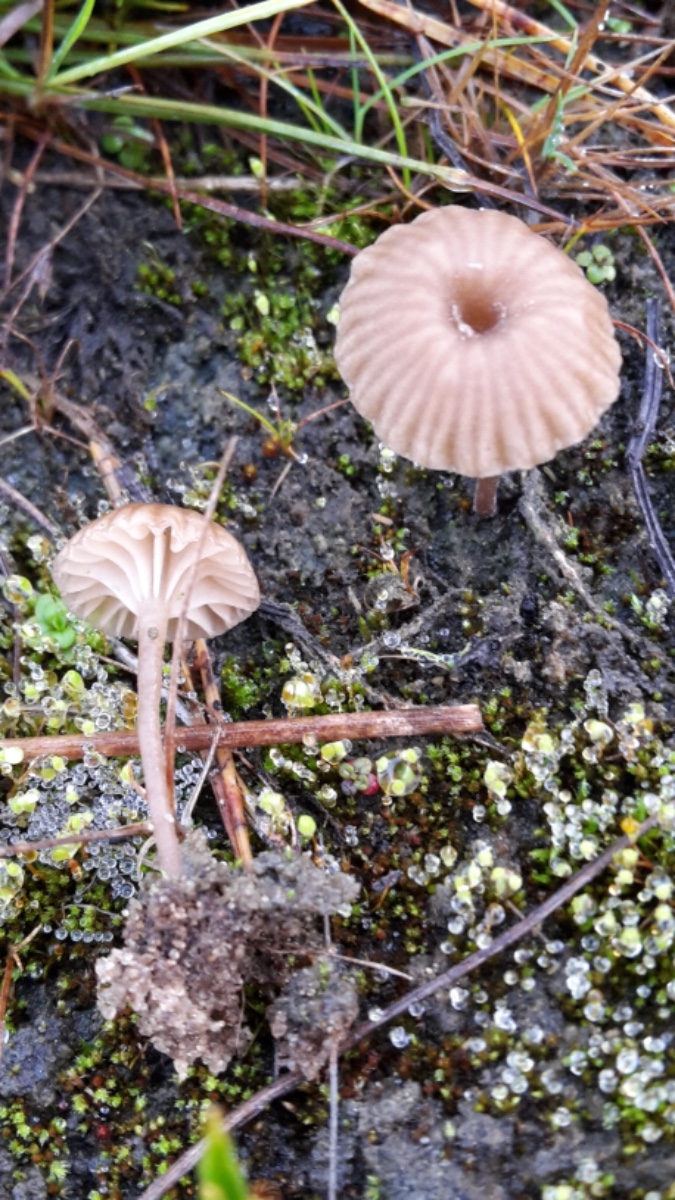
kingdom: Fungi
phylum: Basidiomycota
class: Agaricomycetes
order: Agaricales
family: Hygrophoraceae
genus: Arrhenia
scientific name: Arrhenia
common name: fontænehat
